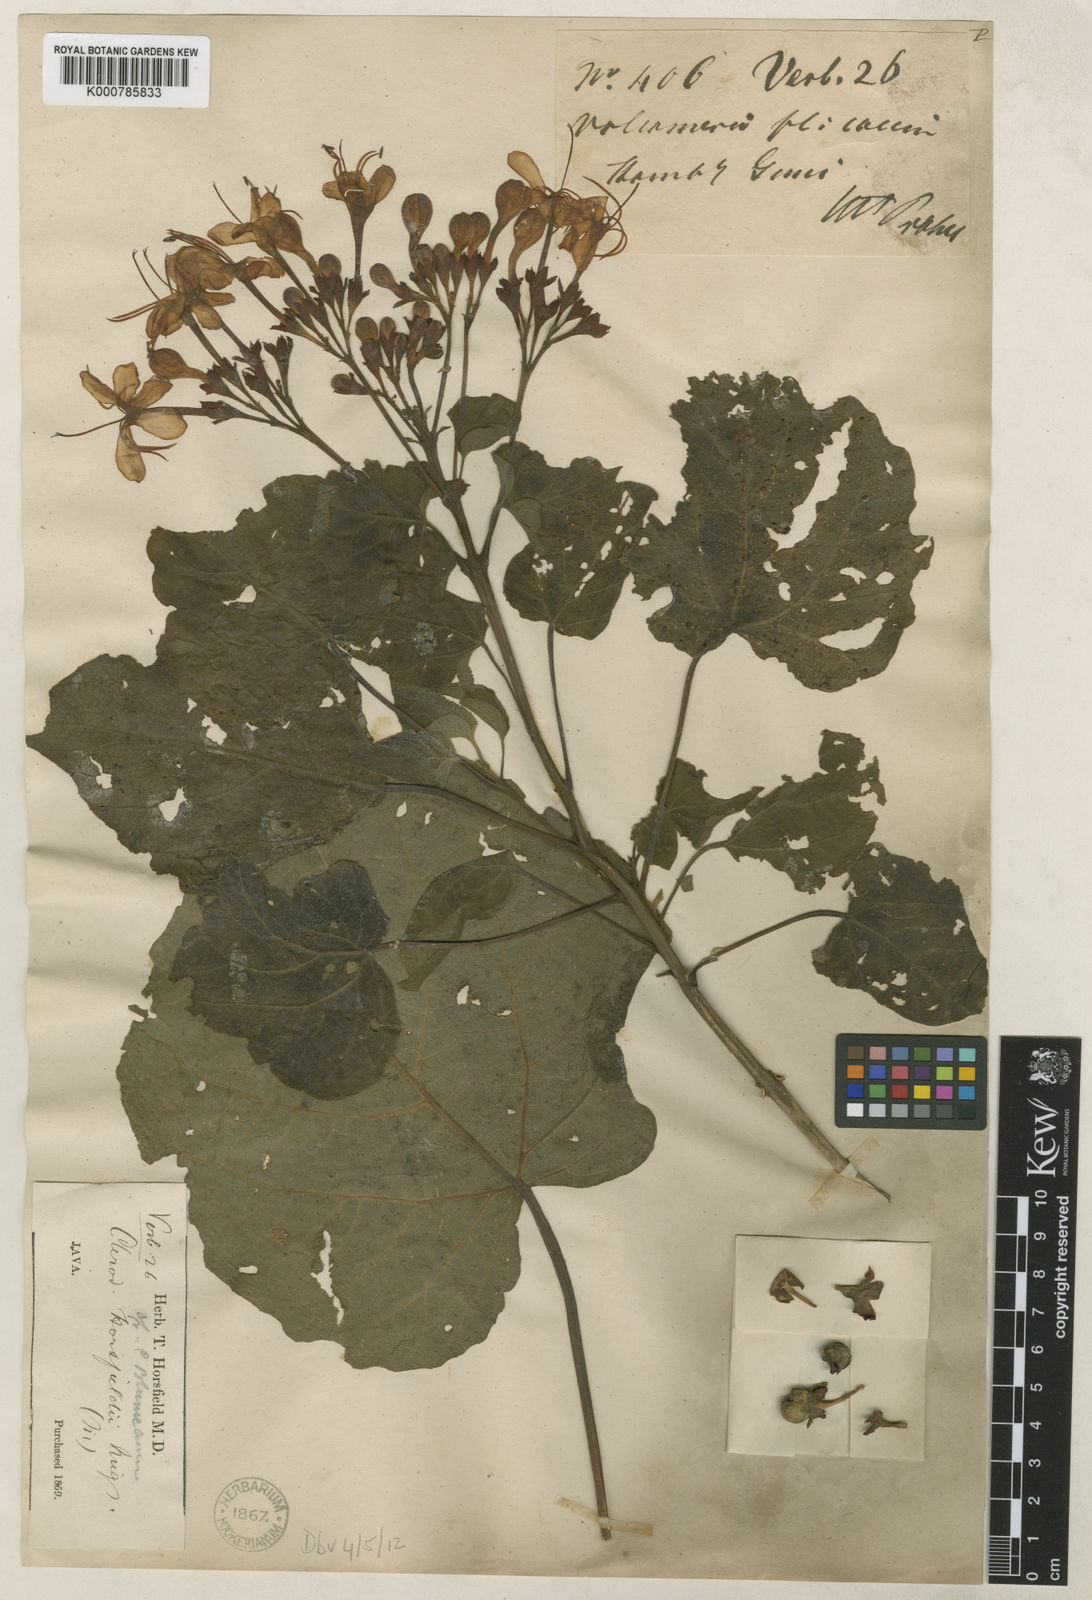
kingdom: Plantae
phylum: Tracheophyta
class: Magnoliopsida
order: Lamiales
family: Lamiaceae
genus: Clerodendrum
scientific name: Clerodendrum speciosissimum
